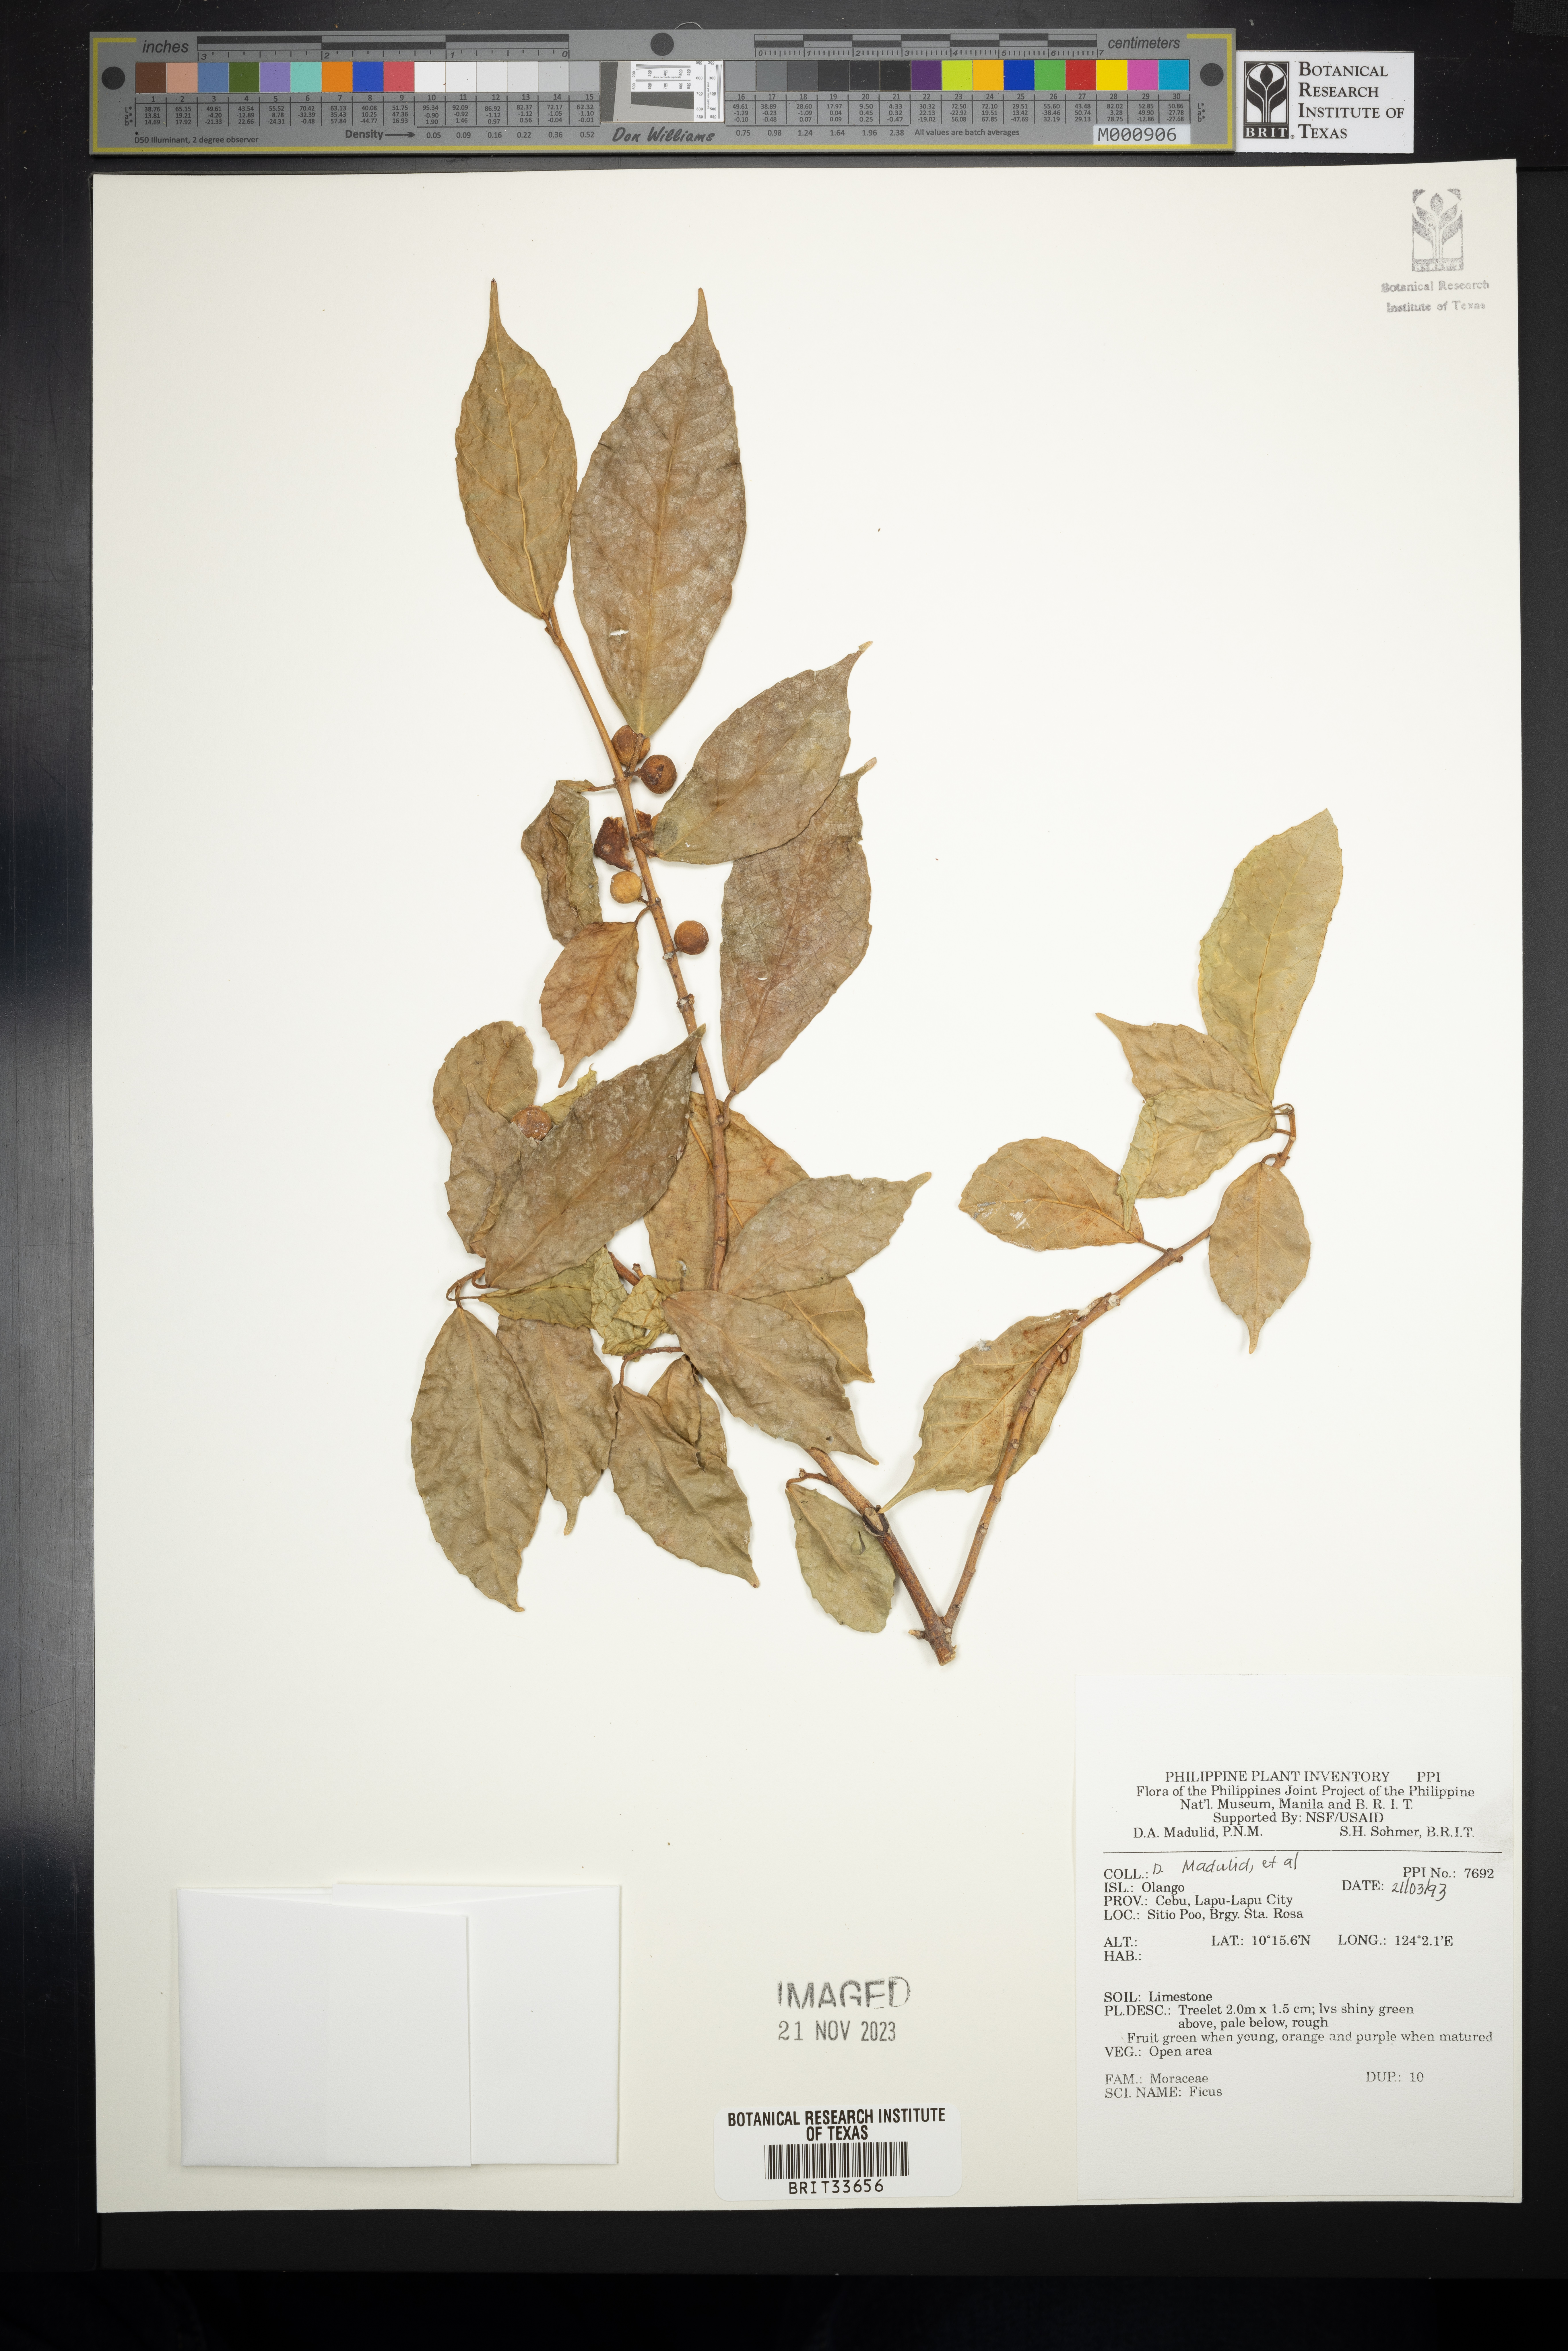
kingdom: Plantae
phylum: Tracheophyta
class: Magnoliopsida
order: Rosales
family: Moraceae
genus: Ficus
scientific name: Ficus
